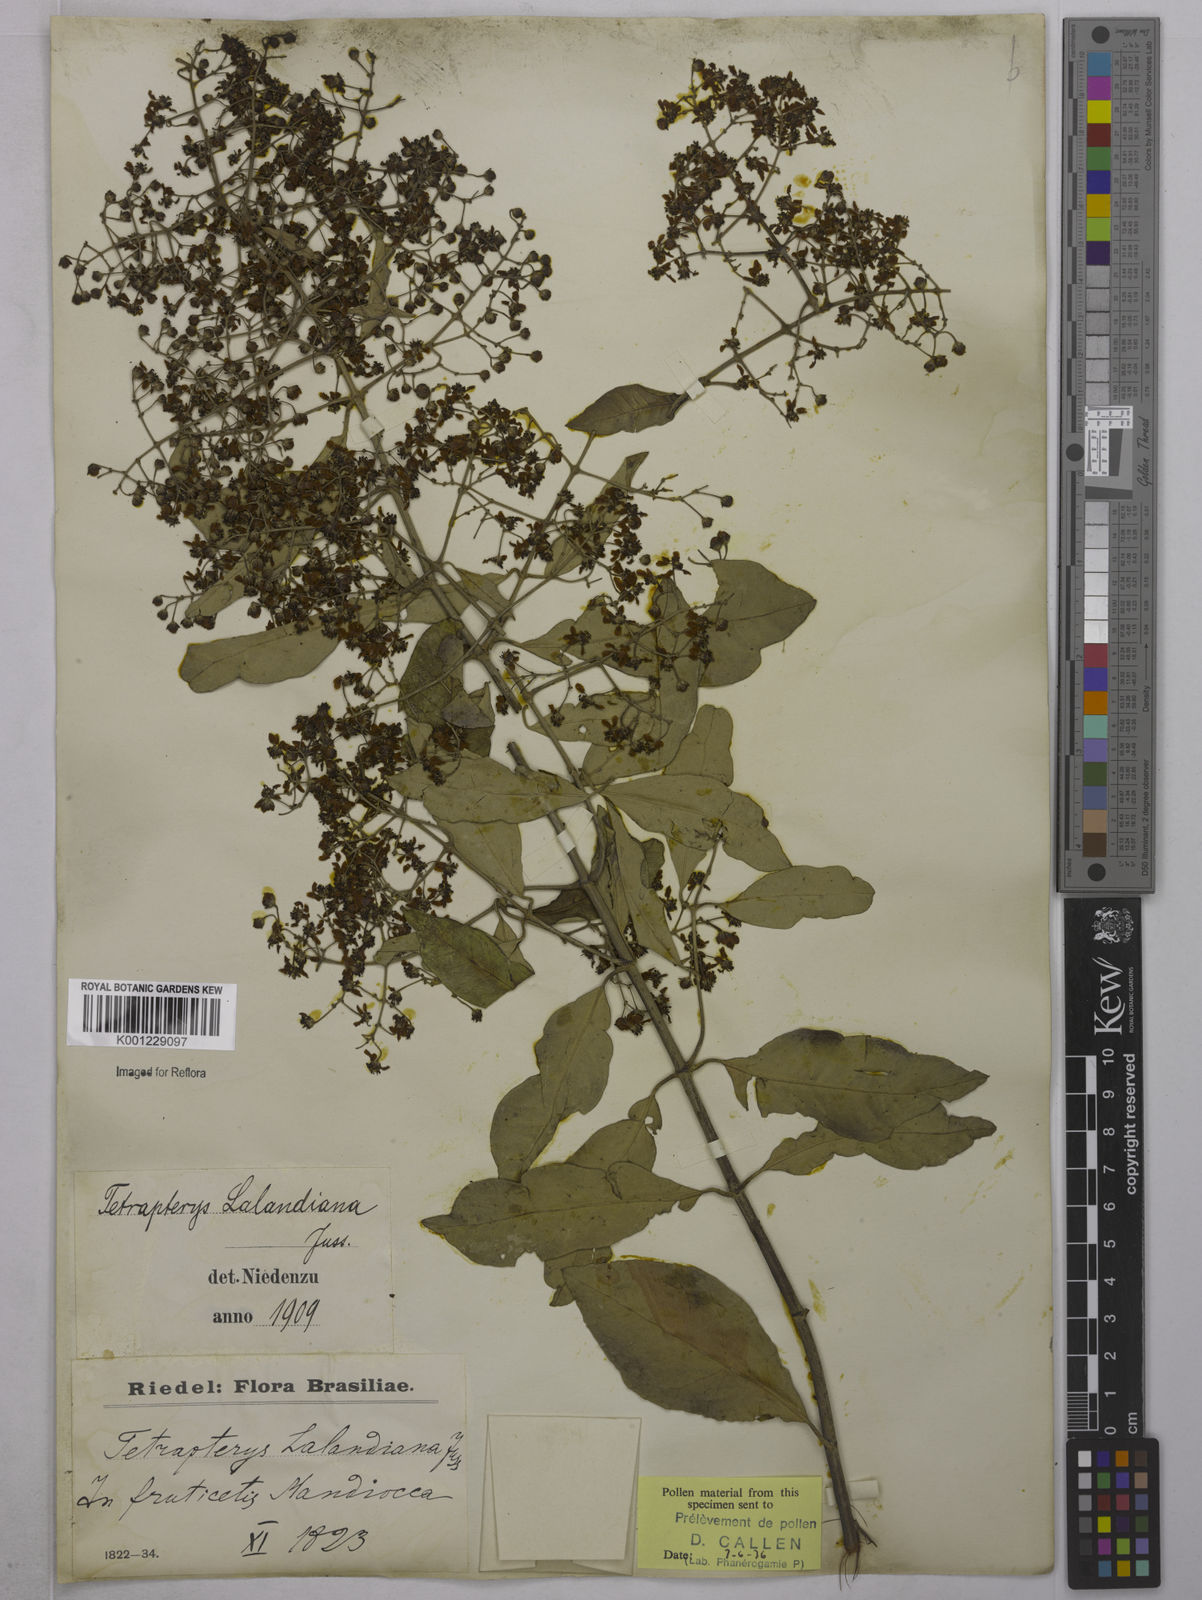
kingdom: Plantae
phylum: Tracheophyta
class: Magnoliopsida
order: Malpighiales
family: Malpighiaceae
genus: Niedenzuella
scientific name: Niedenzuella poeppigiana
